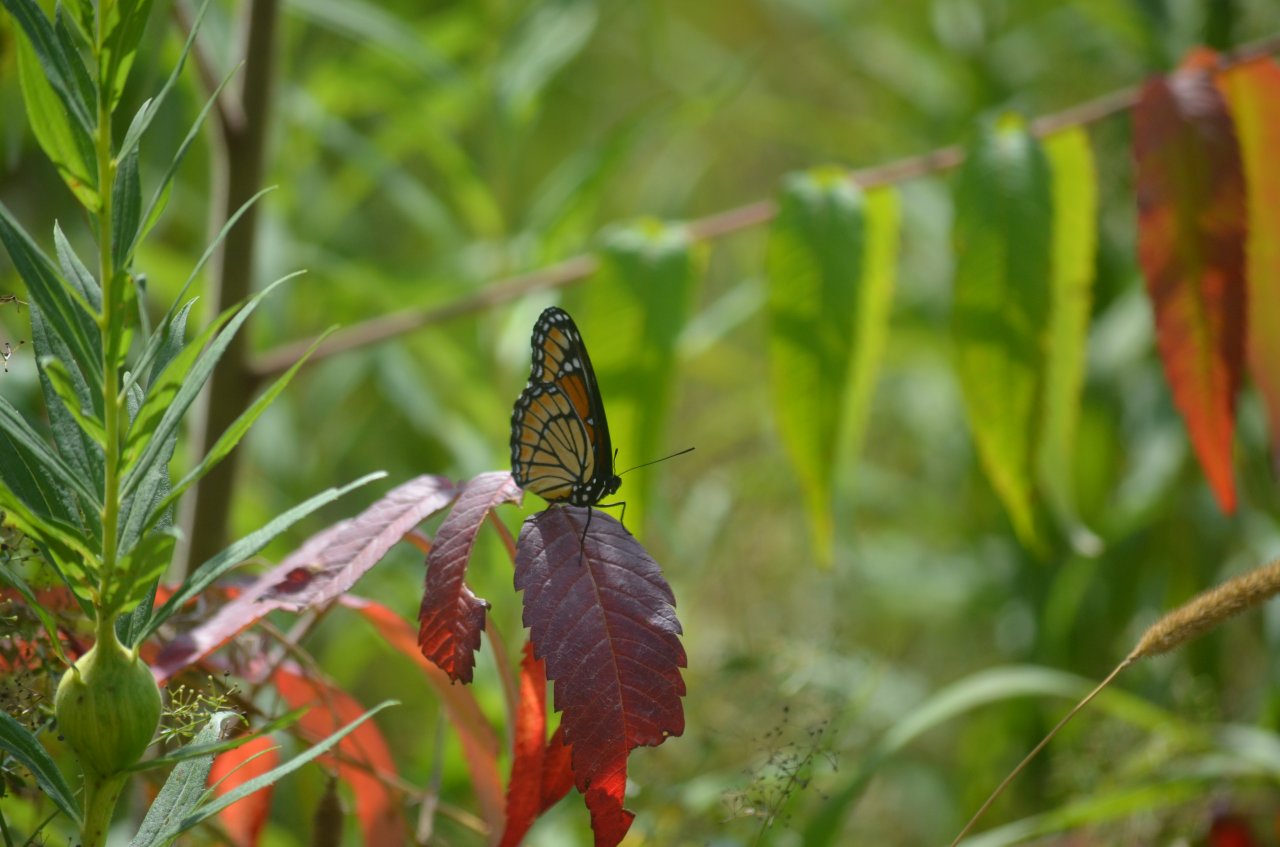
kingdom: Animalia
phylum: Arthropoda
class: Insecta
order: Lepidoptera
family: Nymphalidae
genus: Limenitis
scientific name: Limenitis archippus
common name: Viceroy
